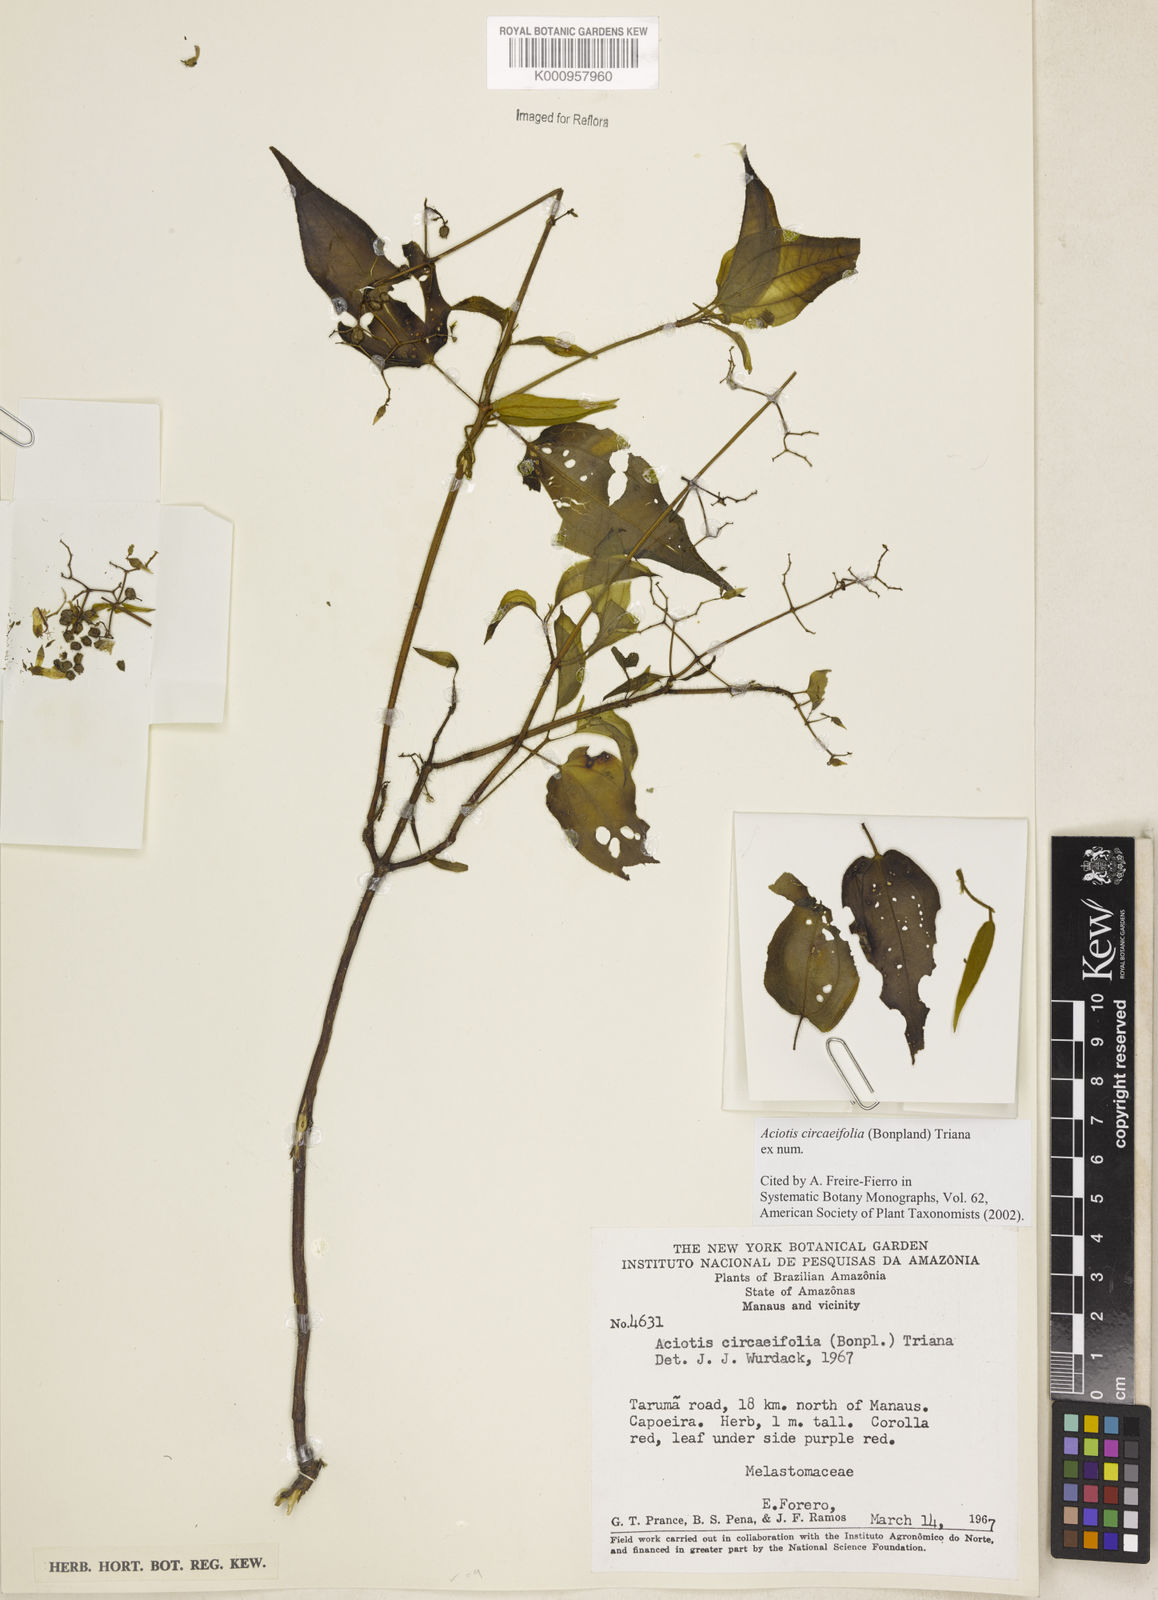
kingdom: Plantae
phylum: Tracheophyta
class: Magnoliopsida
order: Myrtales
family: Melastomataceae
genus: Aciotis
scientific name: Aciotis circaeifolia
